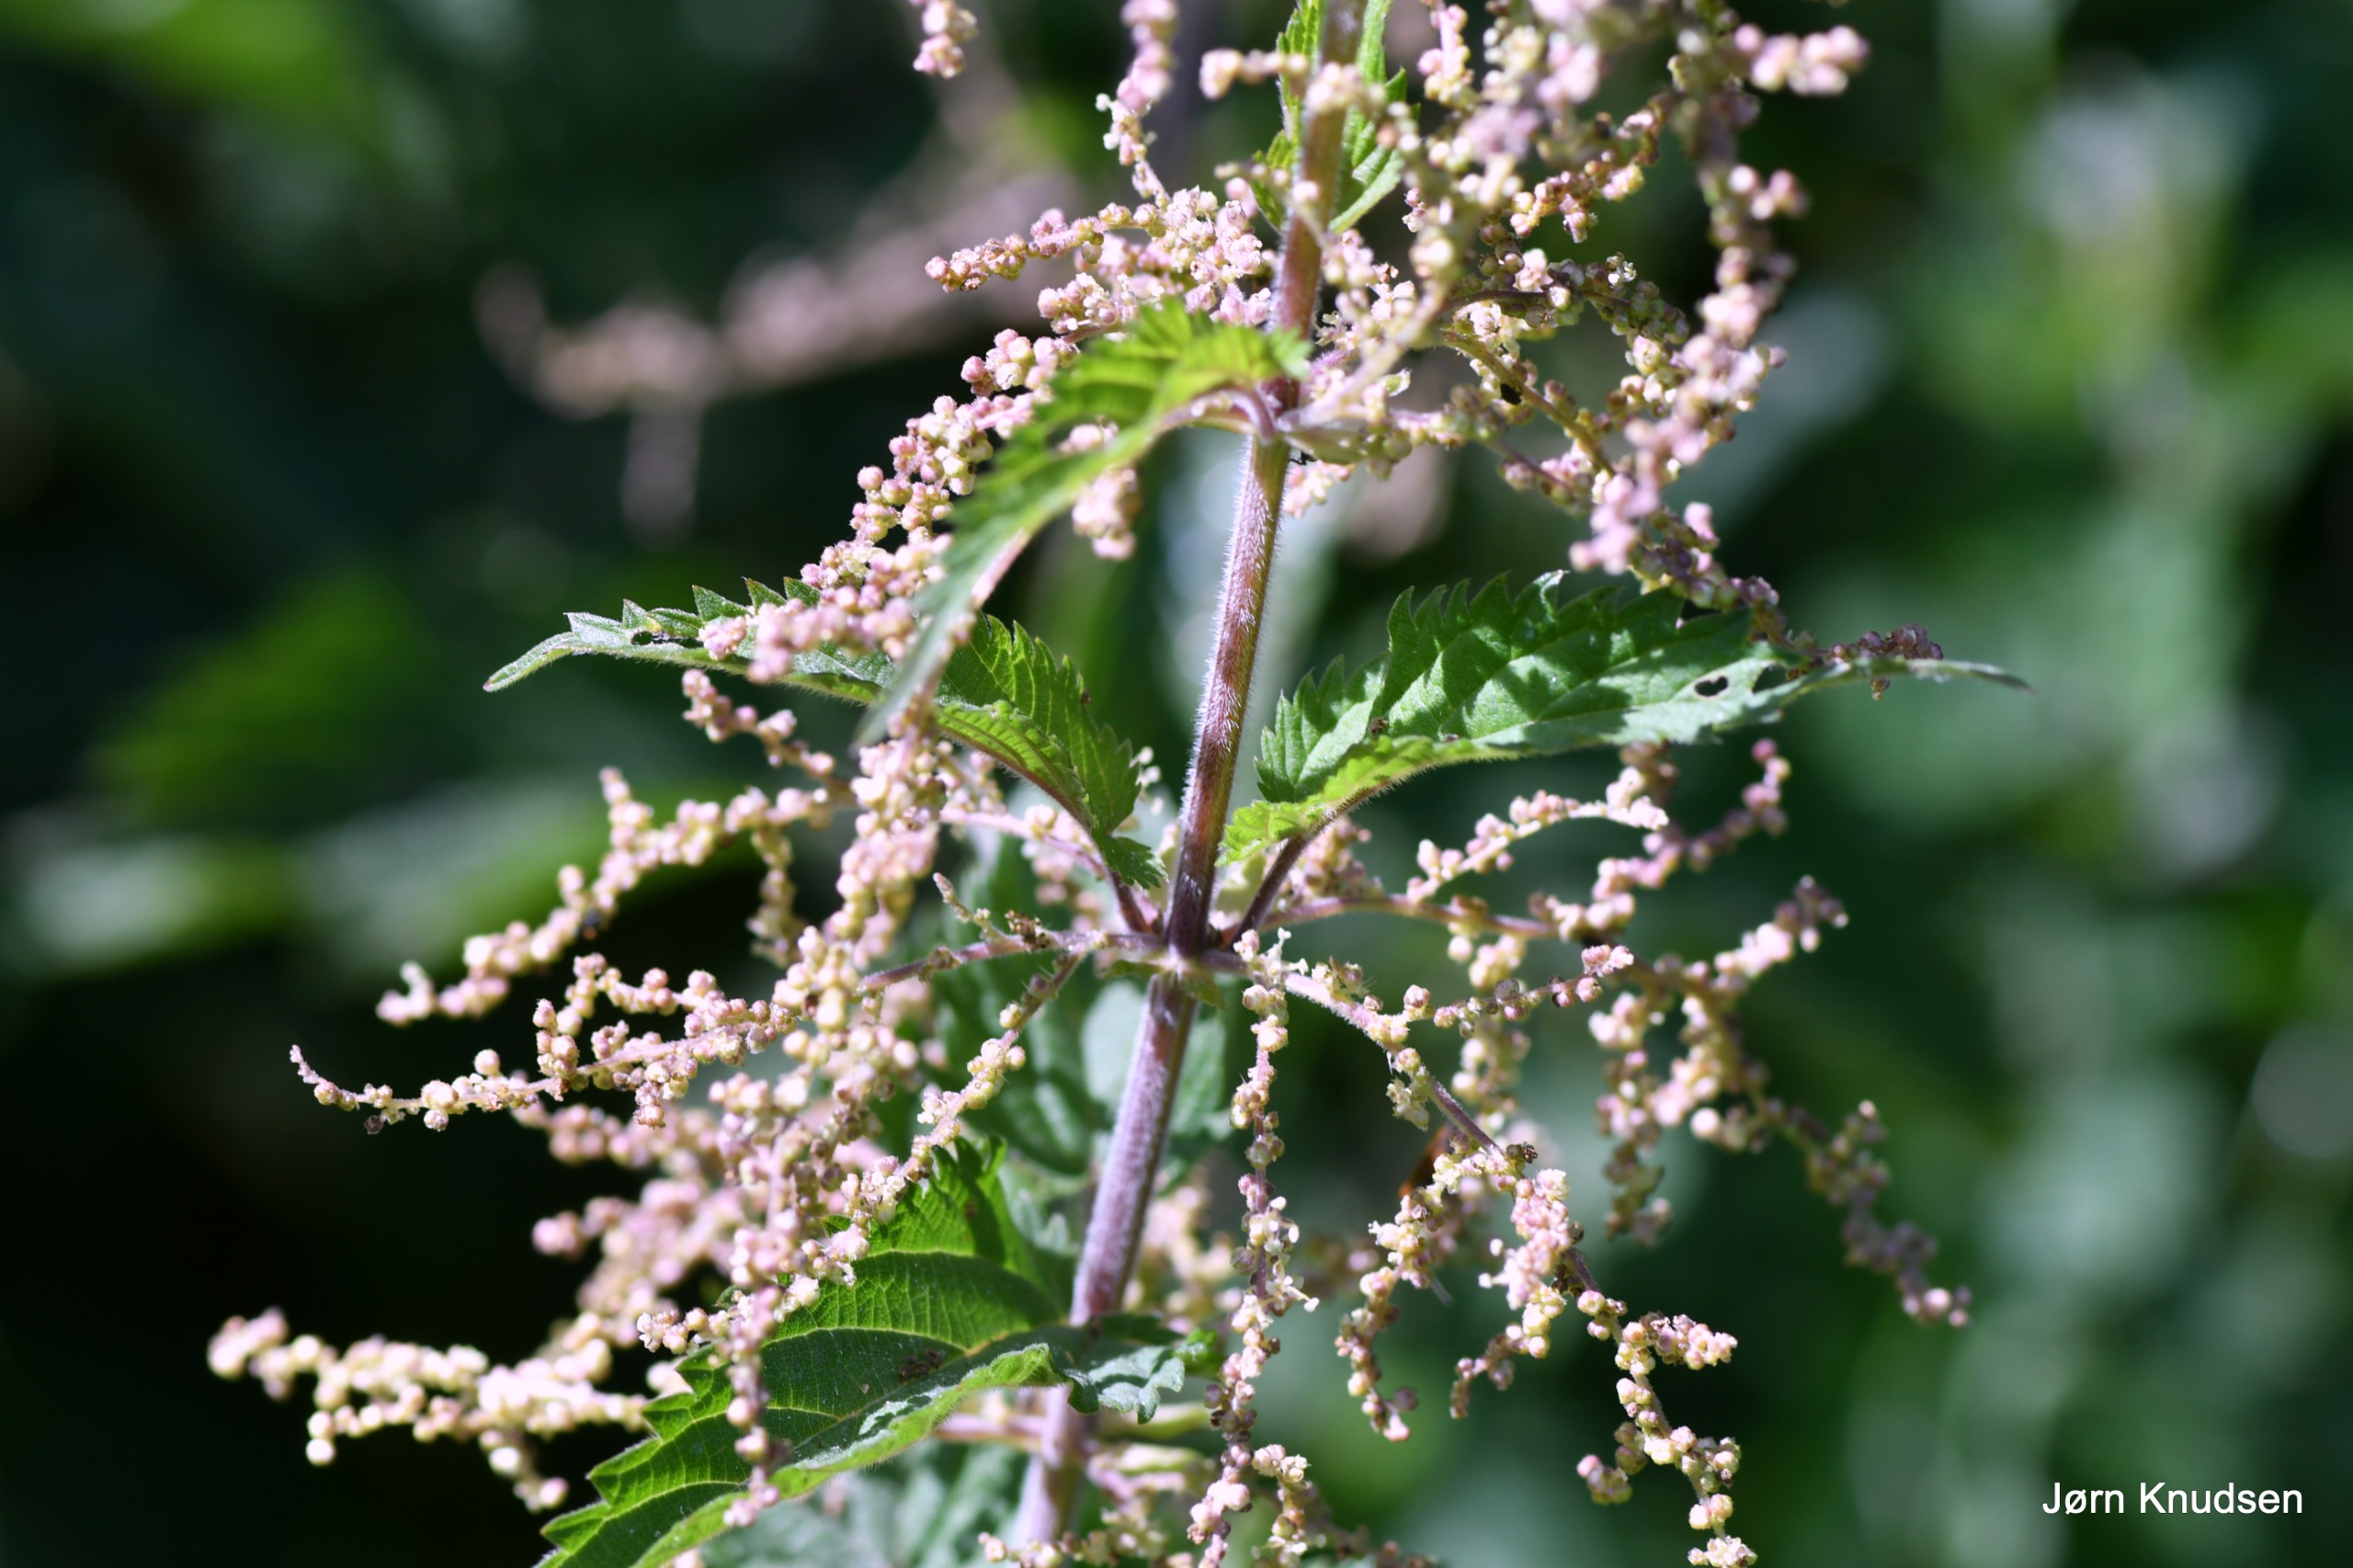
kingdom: Plantae
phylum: Tracheophyta
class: Magnoliopsida
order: Rosales
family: Urticaceae
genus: Urtica
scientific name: Urtica dioica
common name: Stor nælde
